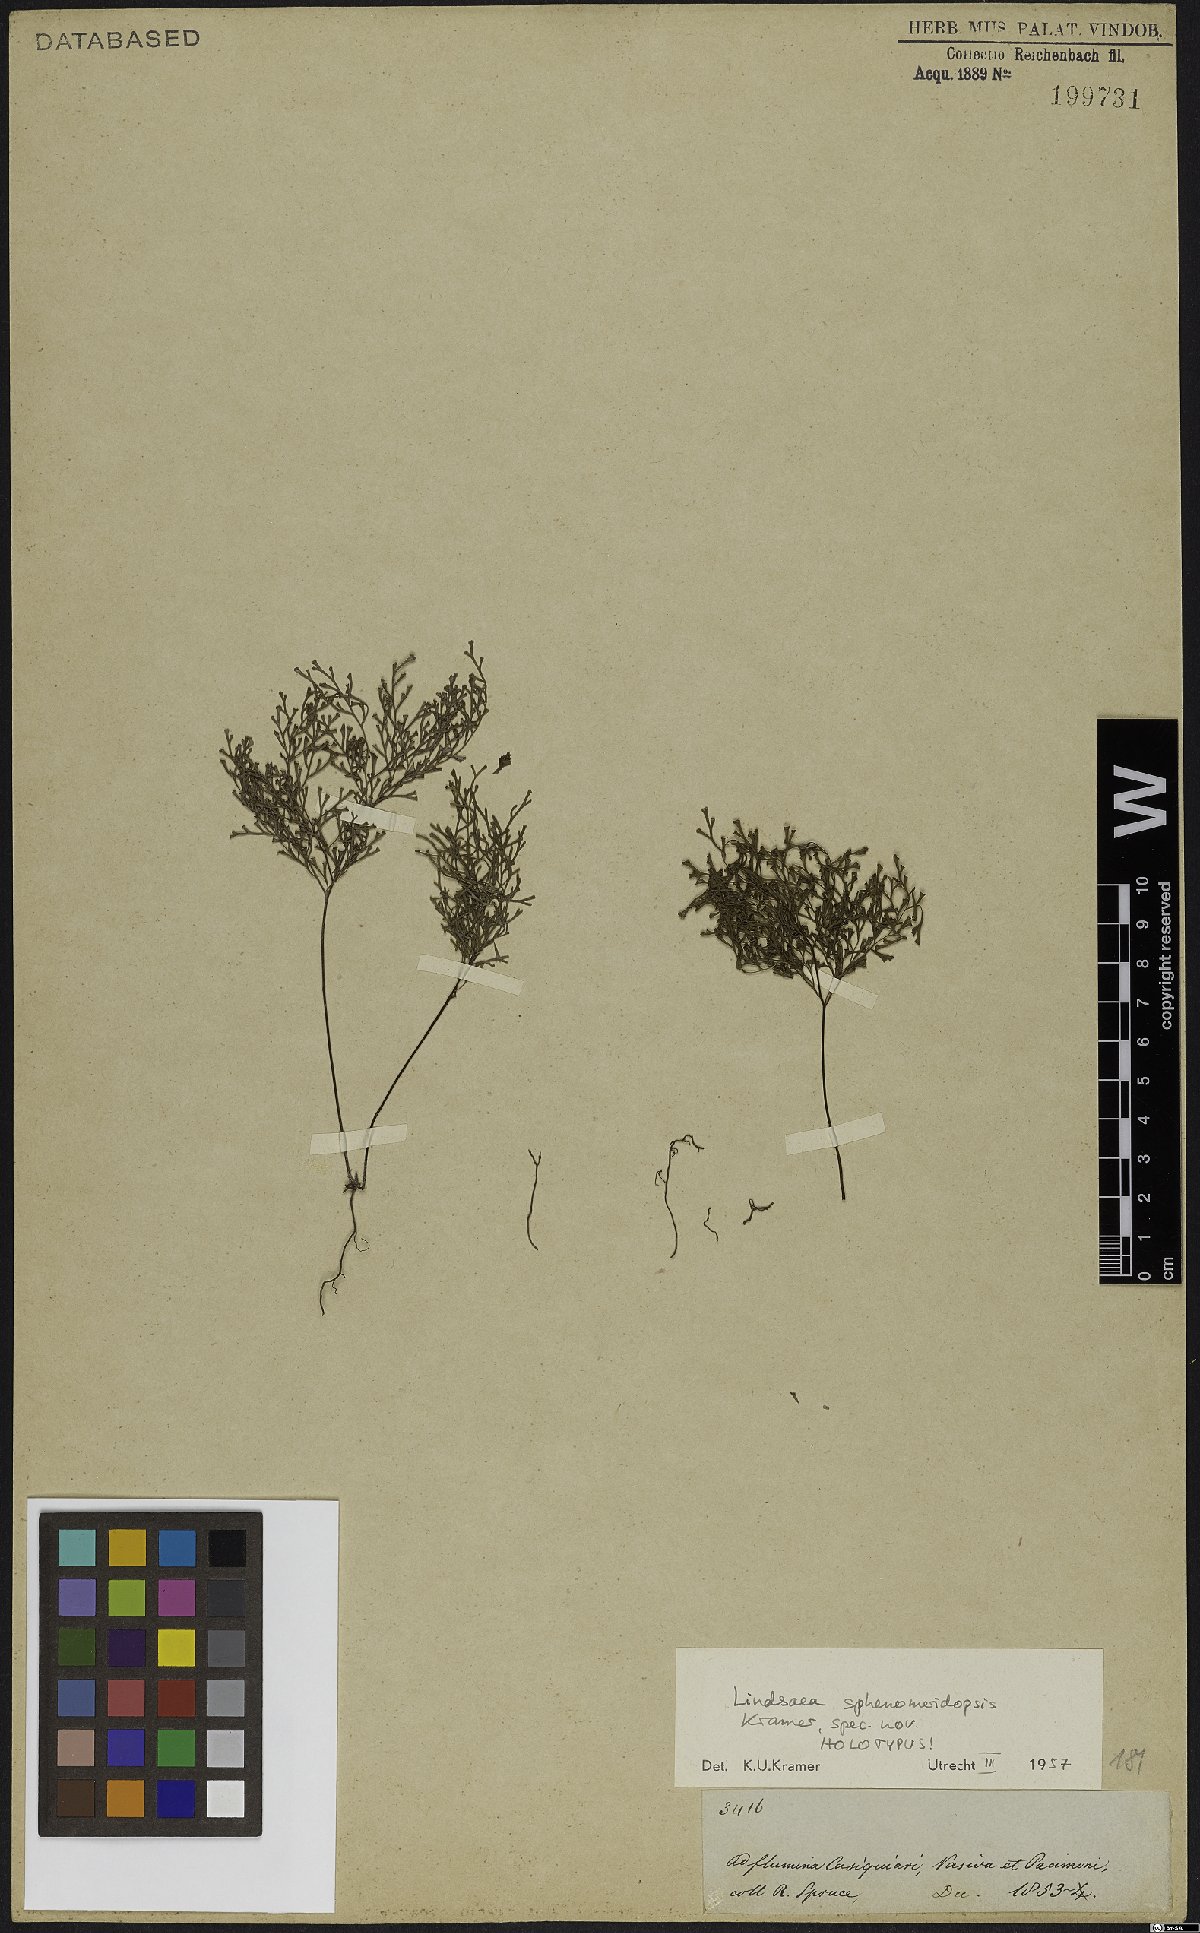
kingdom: Plantae
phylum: Tracheophyta
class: Polypodiopsida
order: Polypodiales
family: Lindsaeaceae
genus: Lindsaea
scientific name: Lindsaea sphenomeridopsis
